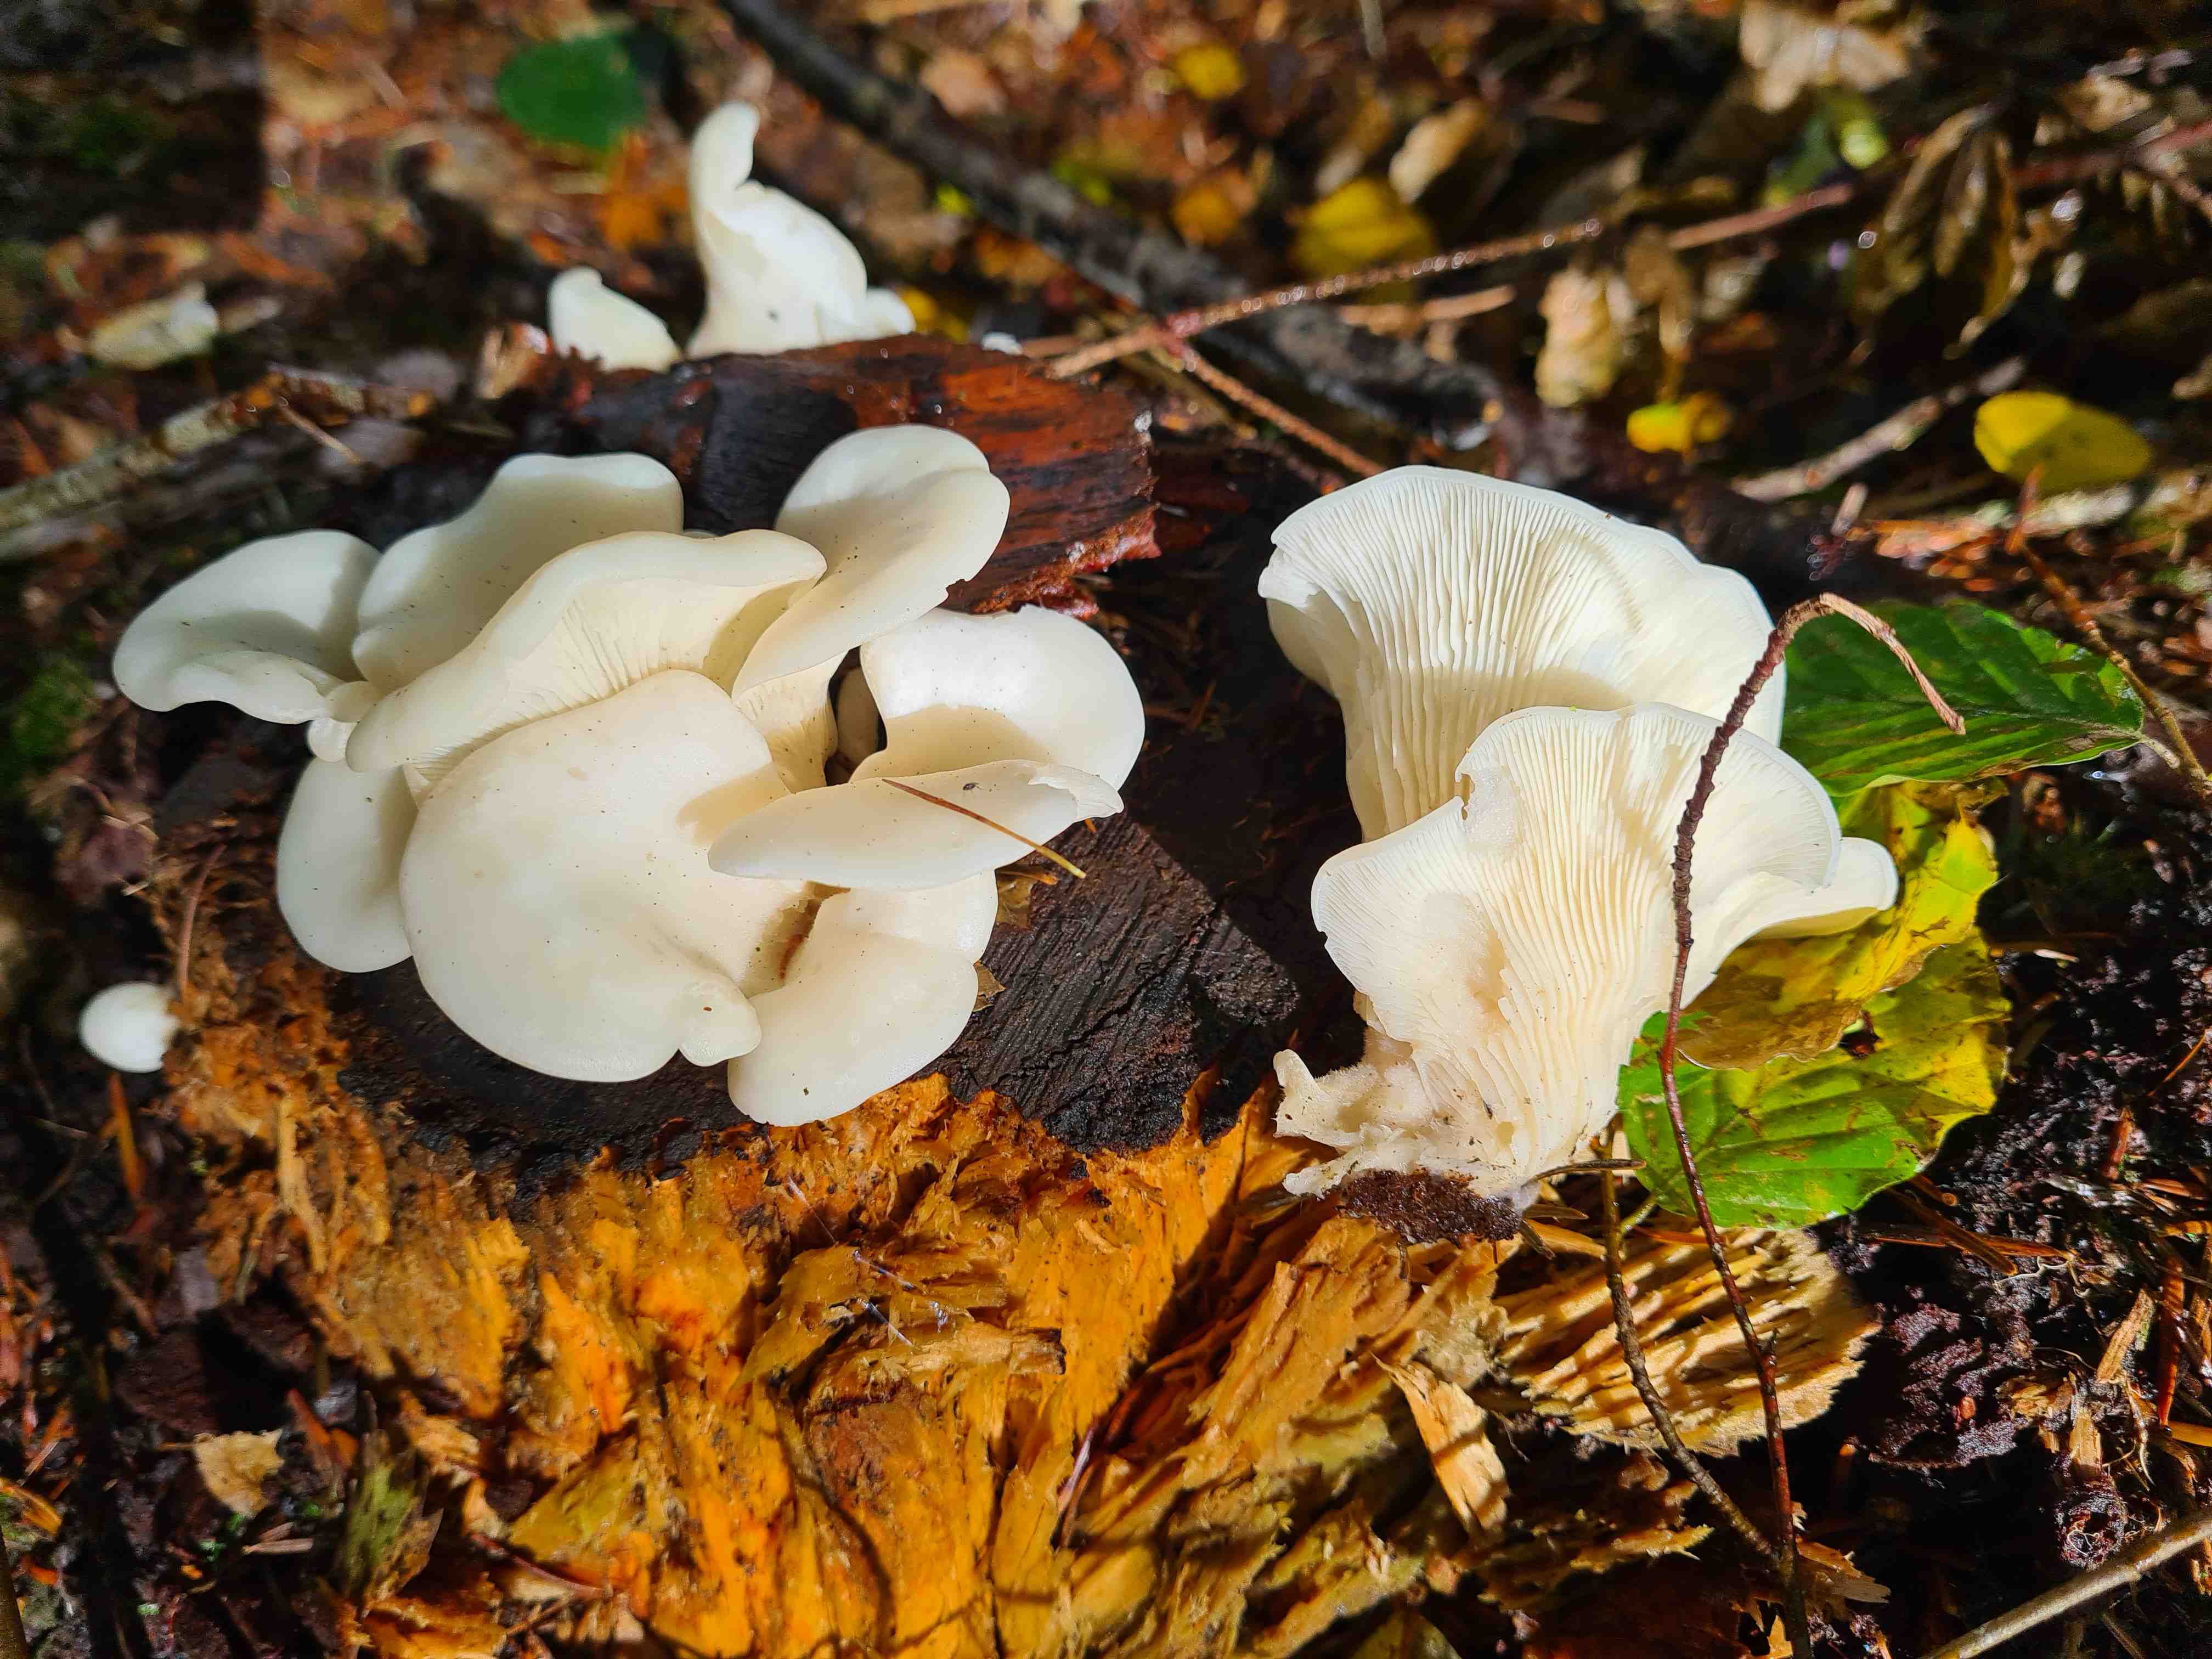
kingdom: Fungi
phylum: Basidiomycota
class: Agaricomycetes
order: Agaricales
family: Marasmiaceae
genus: Pleurocybella
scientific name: Pleurocybella porrigens
